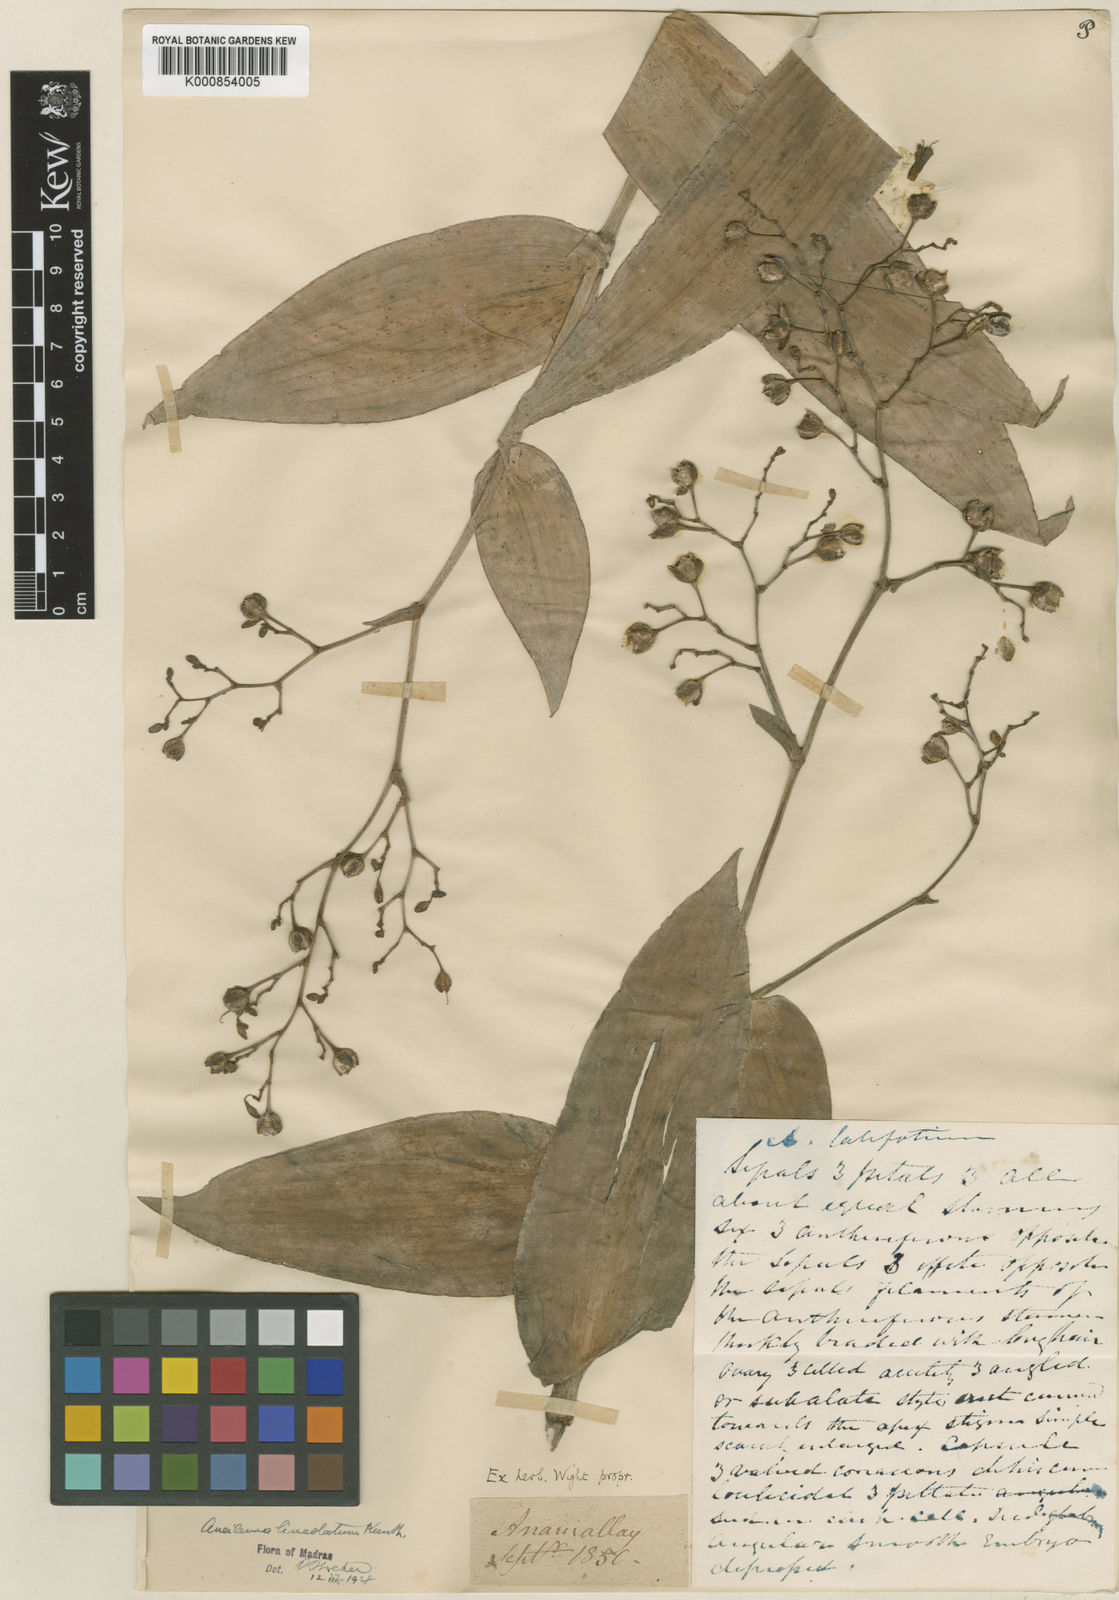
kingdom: Plantae
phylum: Tracheophyta
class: Liliopsida
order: Commelinales
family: Commelinaceae
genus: Murdannia
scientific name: Murdannia
